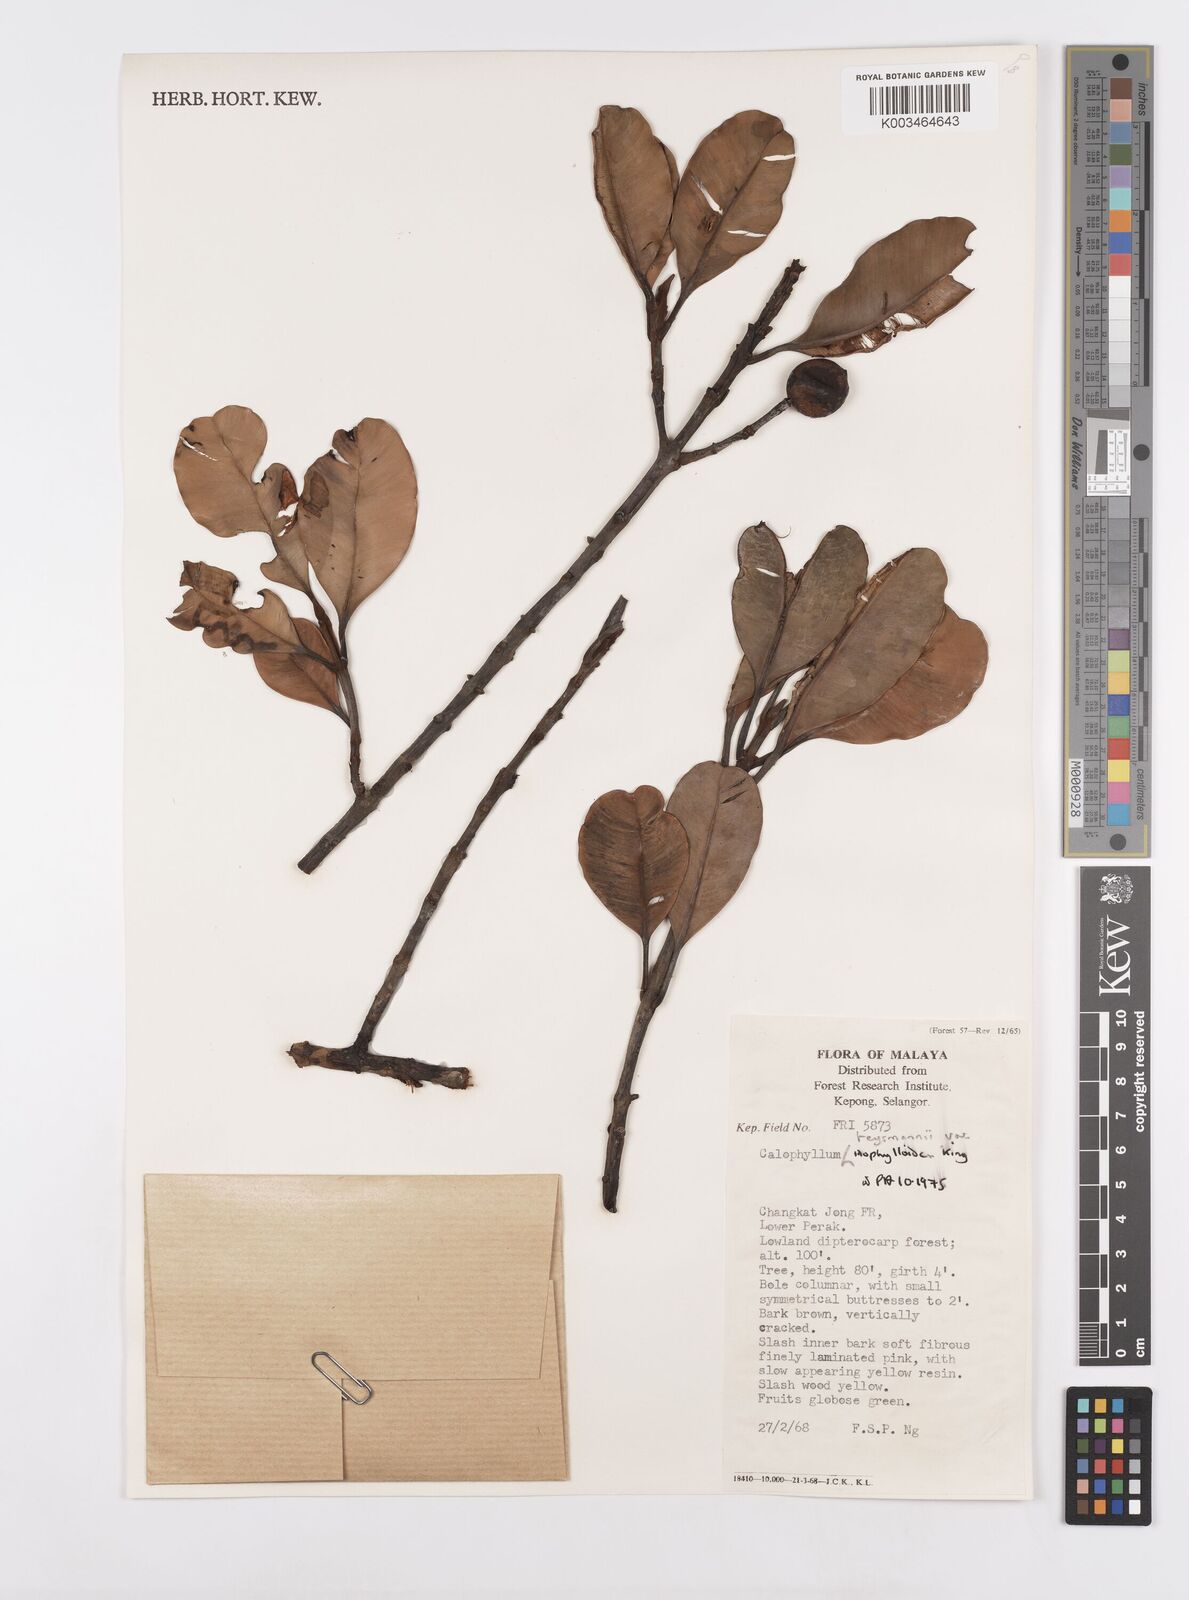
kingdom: Plantae
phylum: Tracheophyta
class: Magnoliopsida
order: Malpighiales
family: Calophyllaceae
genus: Calophyllum
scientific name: Calophyllum teysmannii
